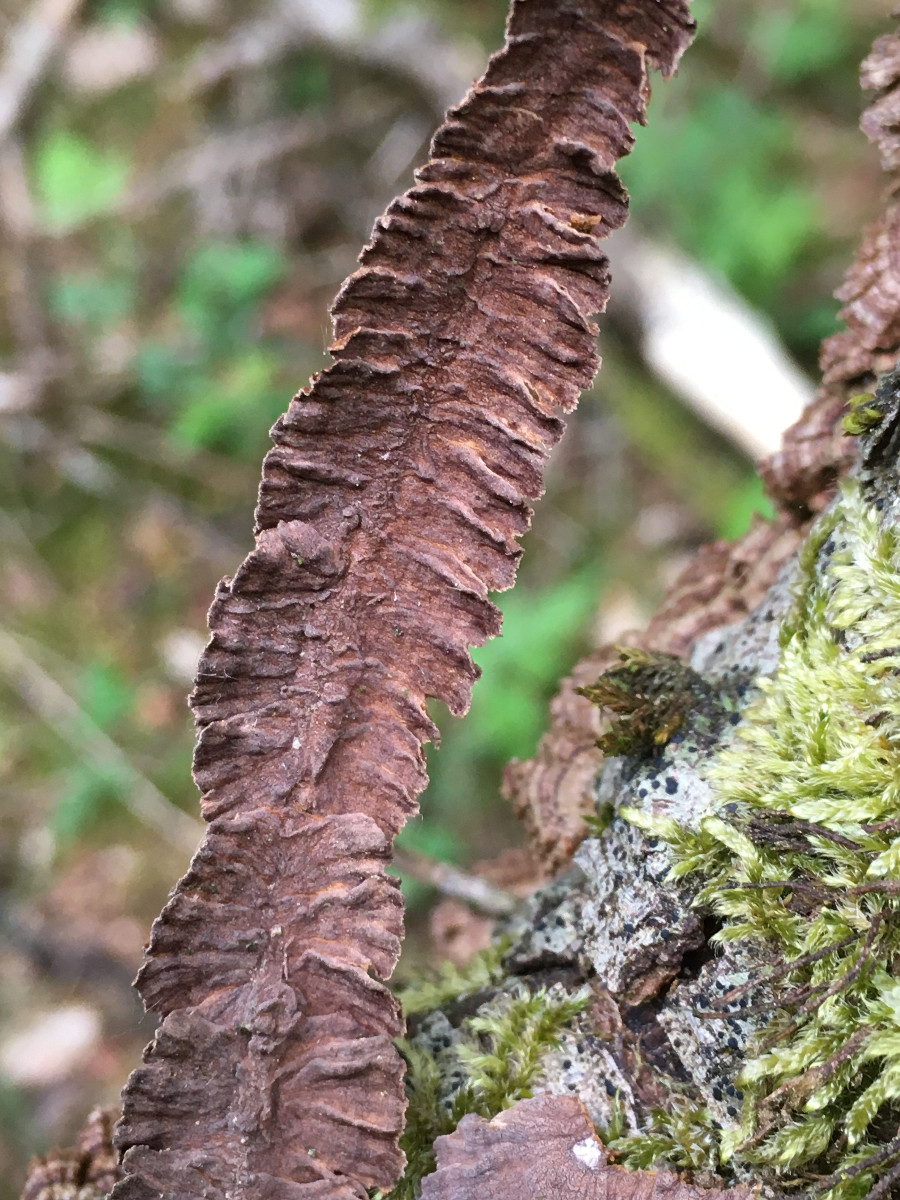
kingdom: Fungi
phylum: Basidiomycota
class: Agaricomycetes
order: Hymenochaetales
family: Hymenochaetaceae
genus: Hydnoporia
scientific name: Hydnoporia tabacina
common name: tobaksbrun ruslædersvamp
